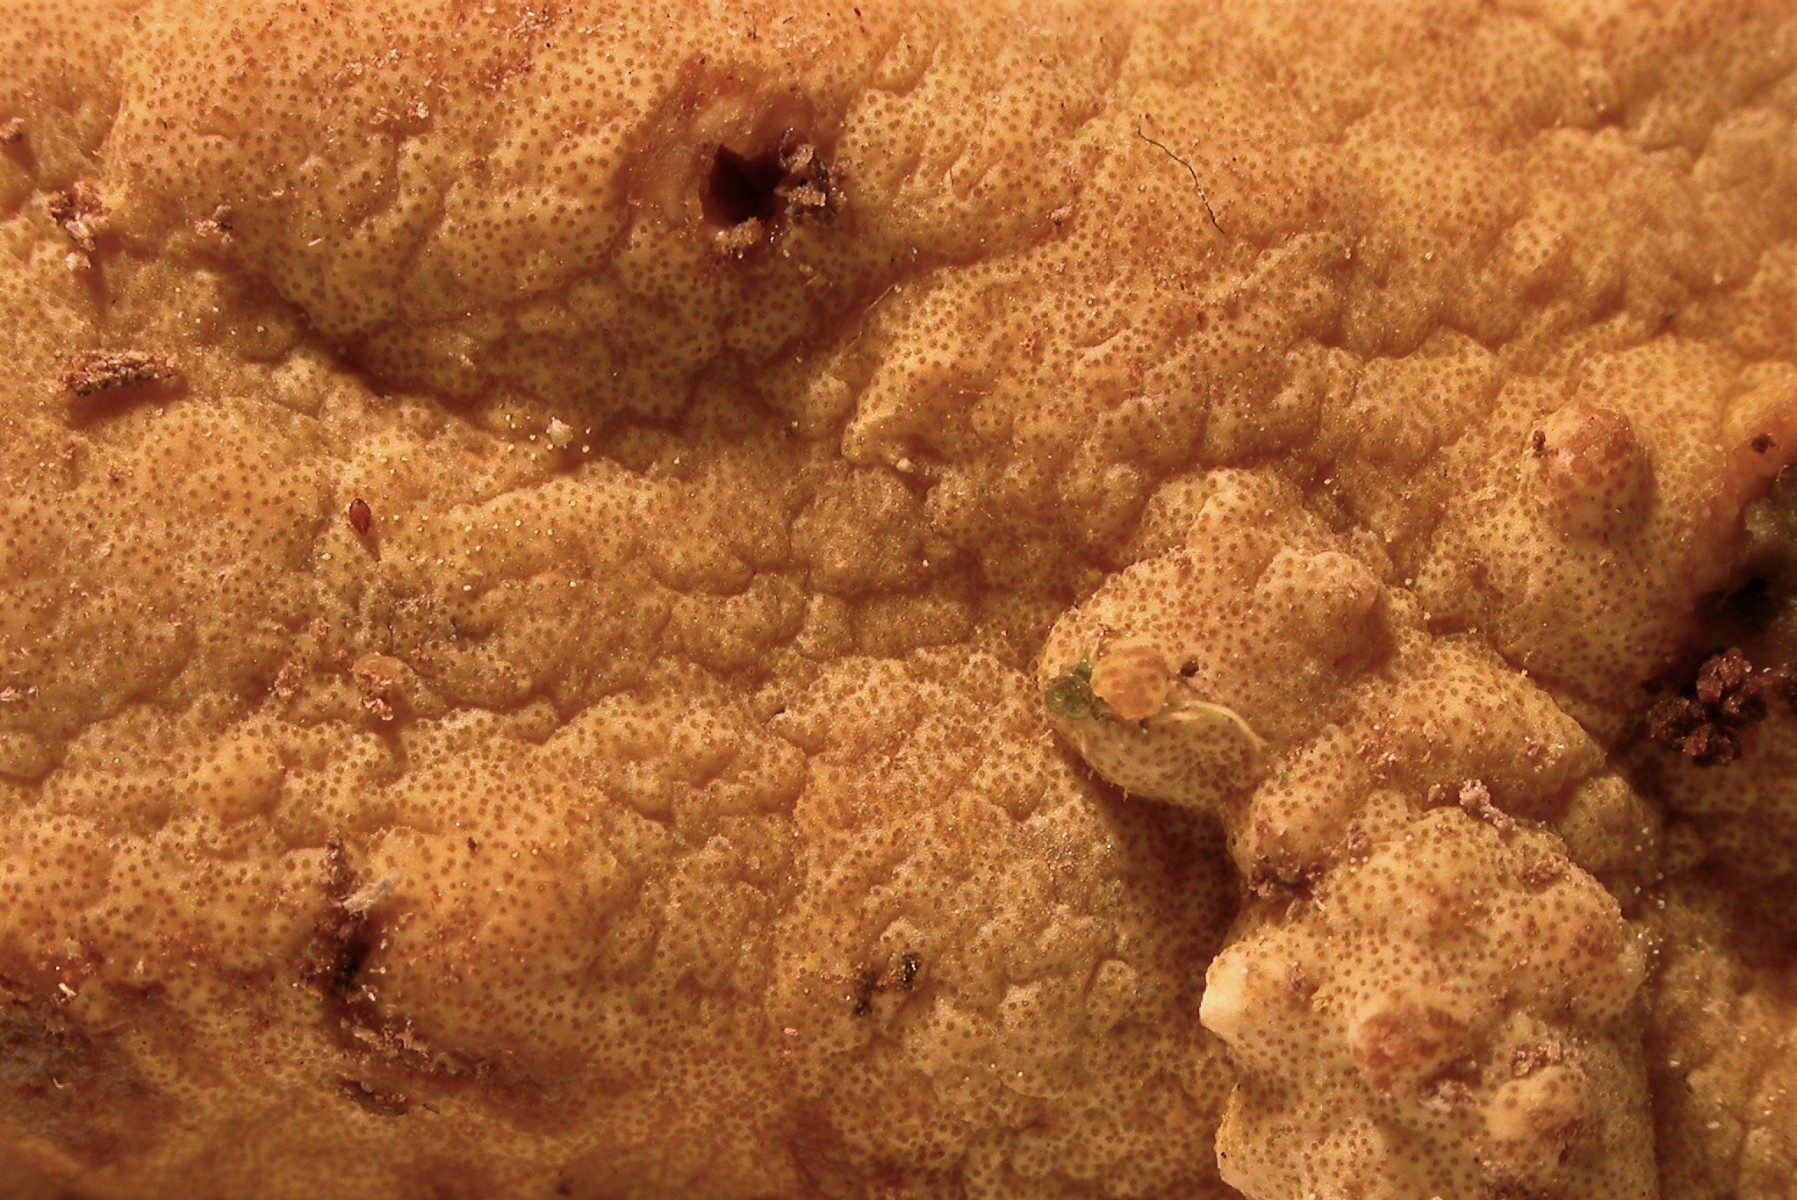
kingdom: Fungi
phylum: Ascomycota
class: Sordariomycetes
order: Hypocreales
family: Hypocreaceae
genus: Trichoderma
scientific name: Trichoderma citrinum
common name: udbredt kødkerne
